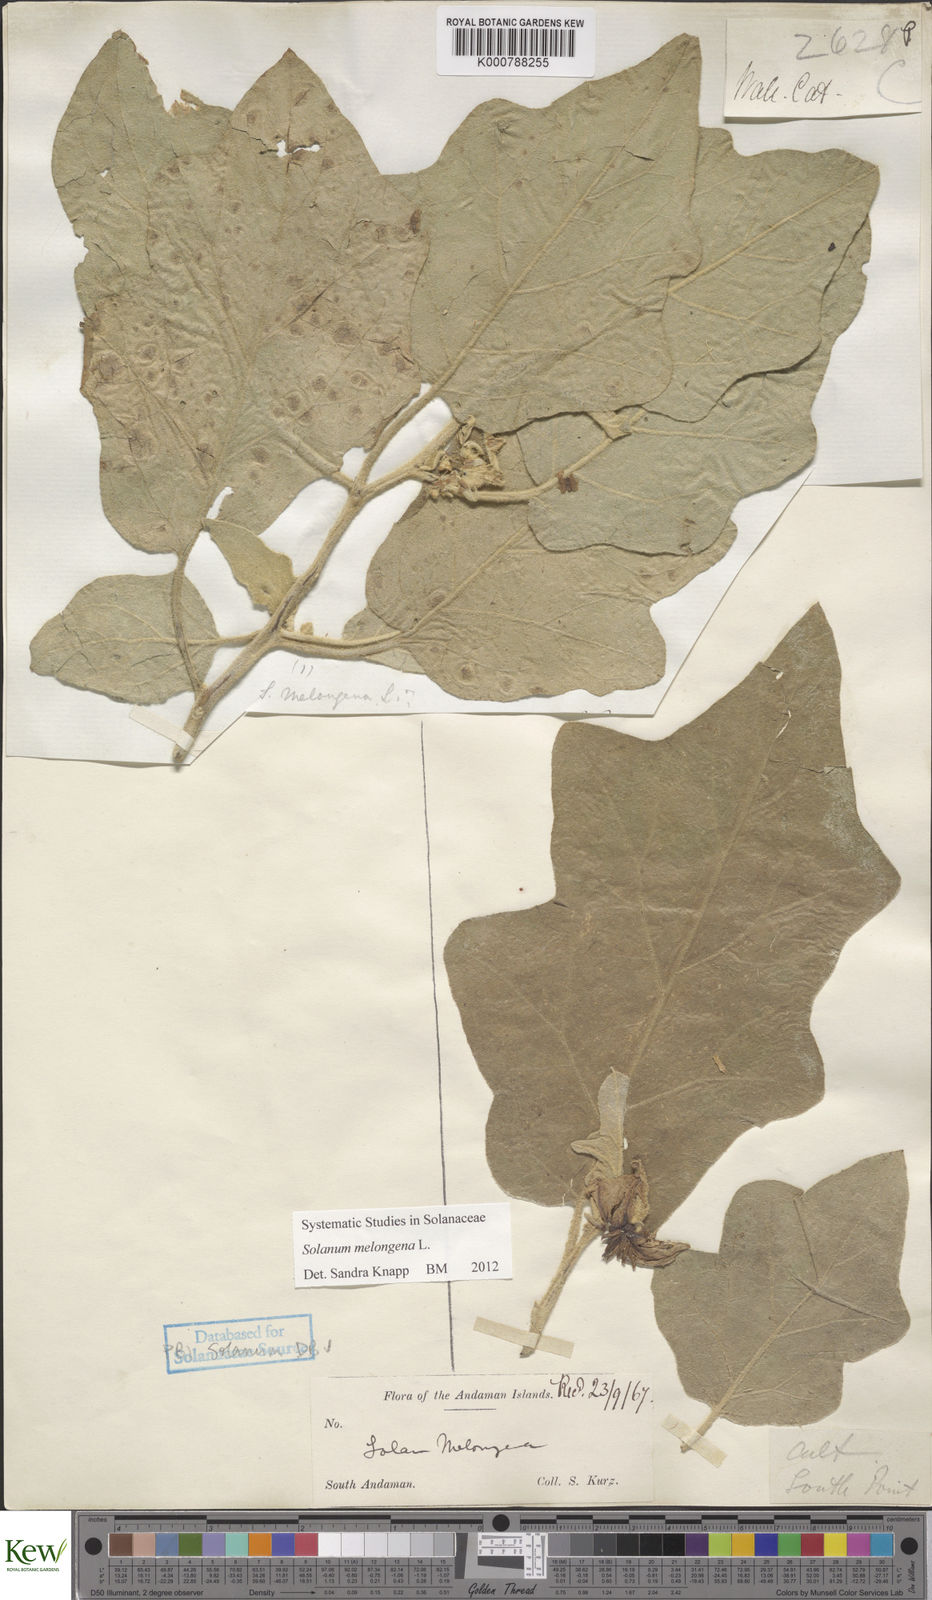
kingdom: Plantae
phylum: Tracheophyta
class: Magnoliopsida
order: Solanales
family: Solanaceae
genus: Solanum
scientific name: Solanum melongena
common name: Eggplant
